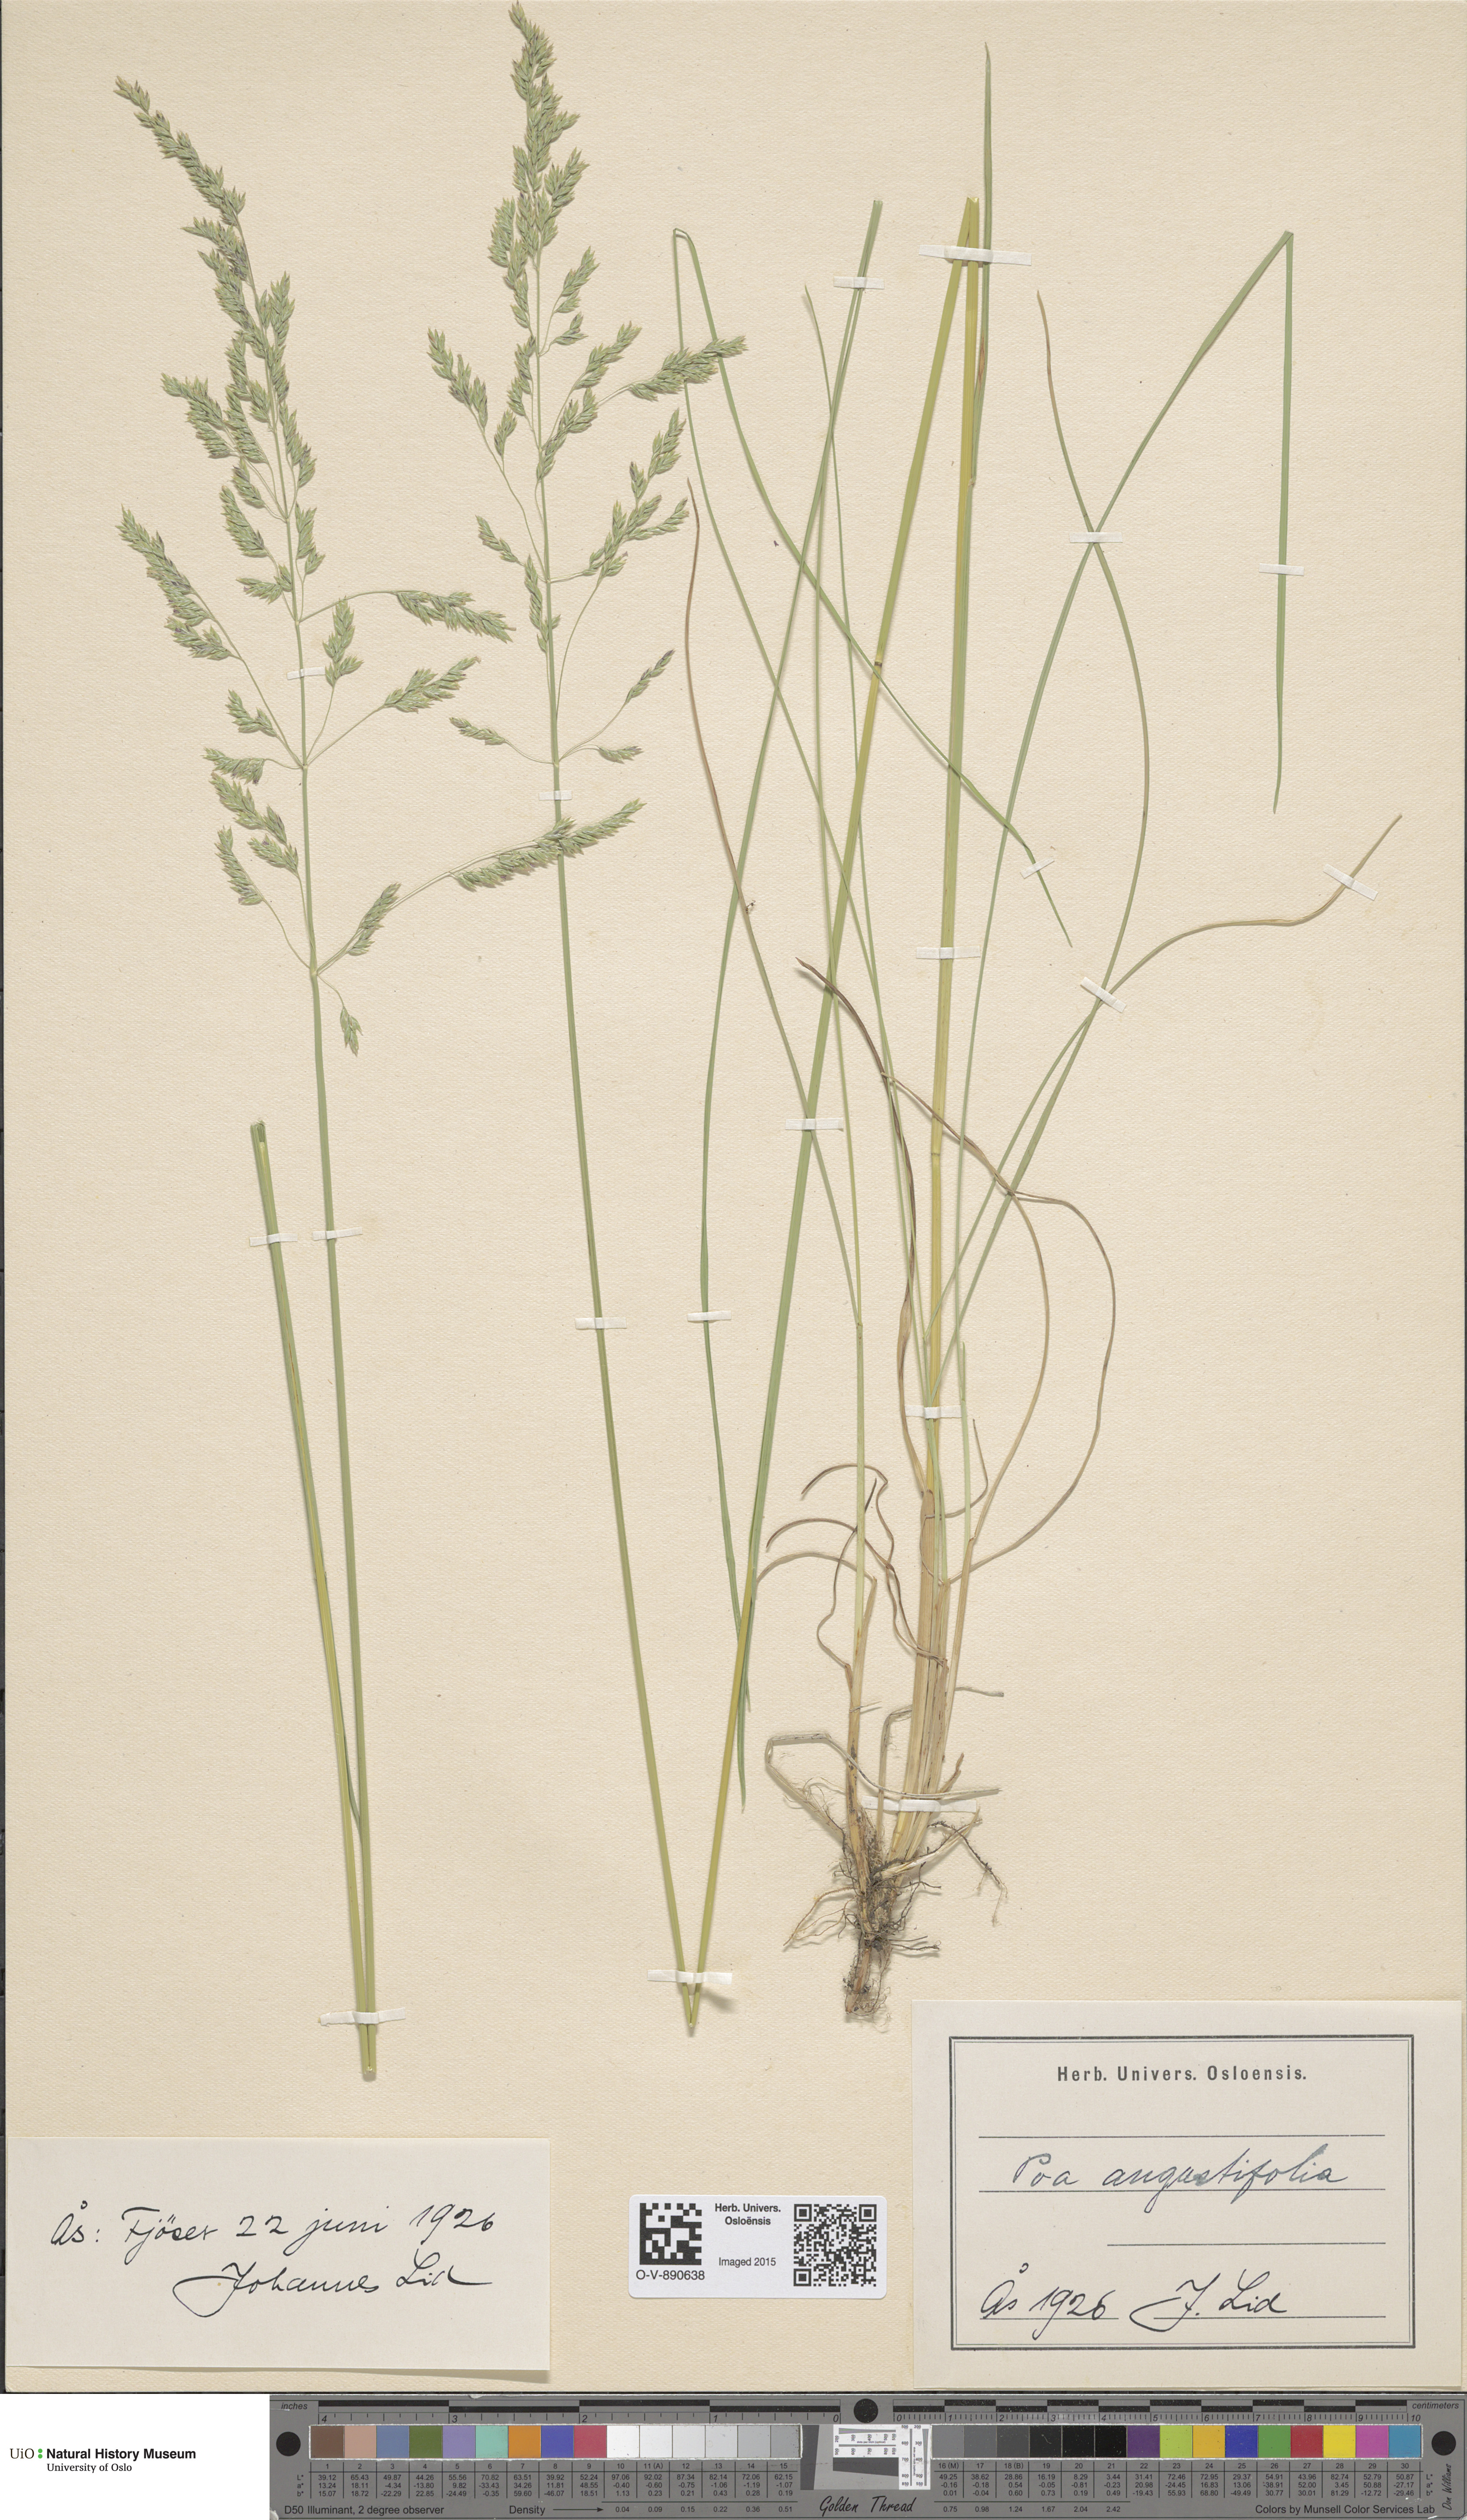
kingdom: Plantae
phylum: Tracheophyta
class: Liliopsida
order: Poales
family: Poaceae
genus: Poa
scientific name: Poa angustifolia
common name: Narrow-leaved meadow-grass
